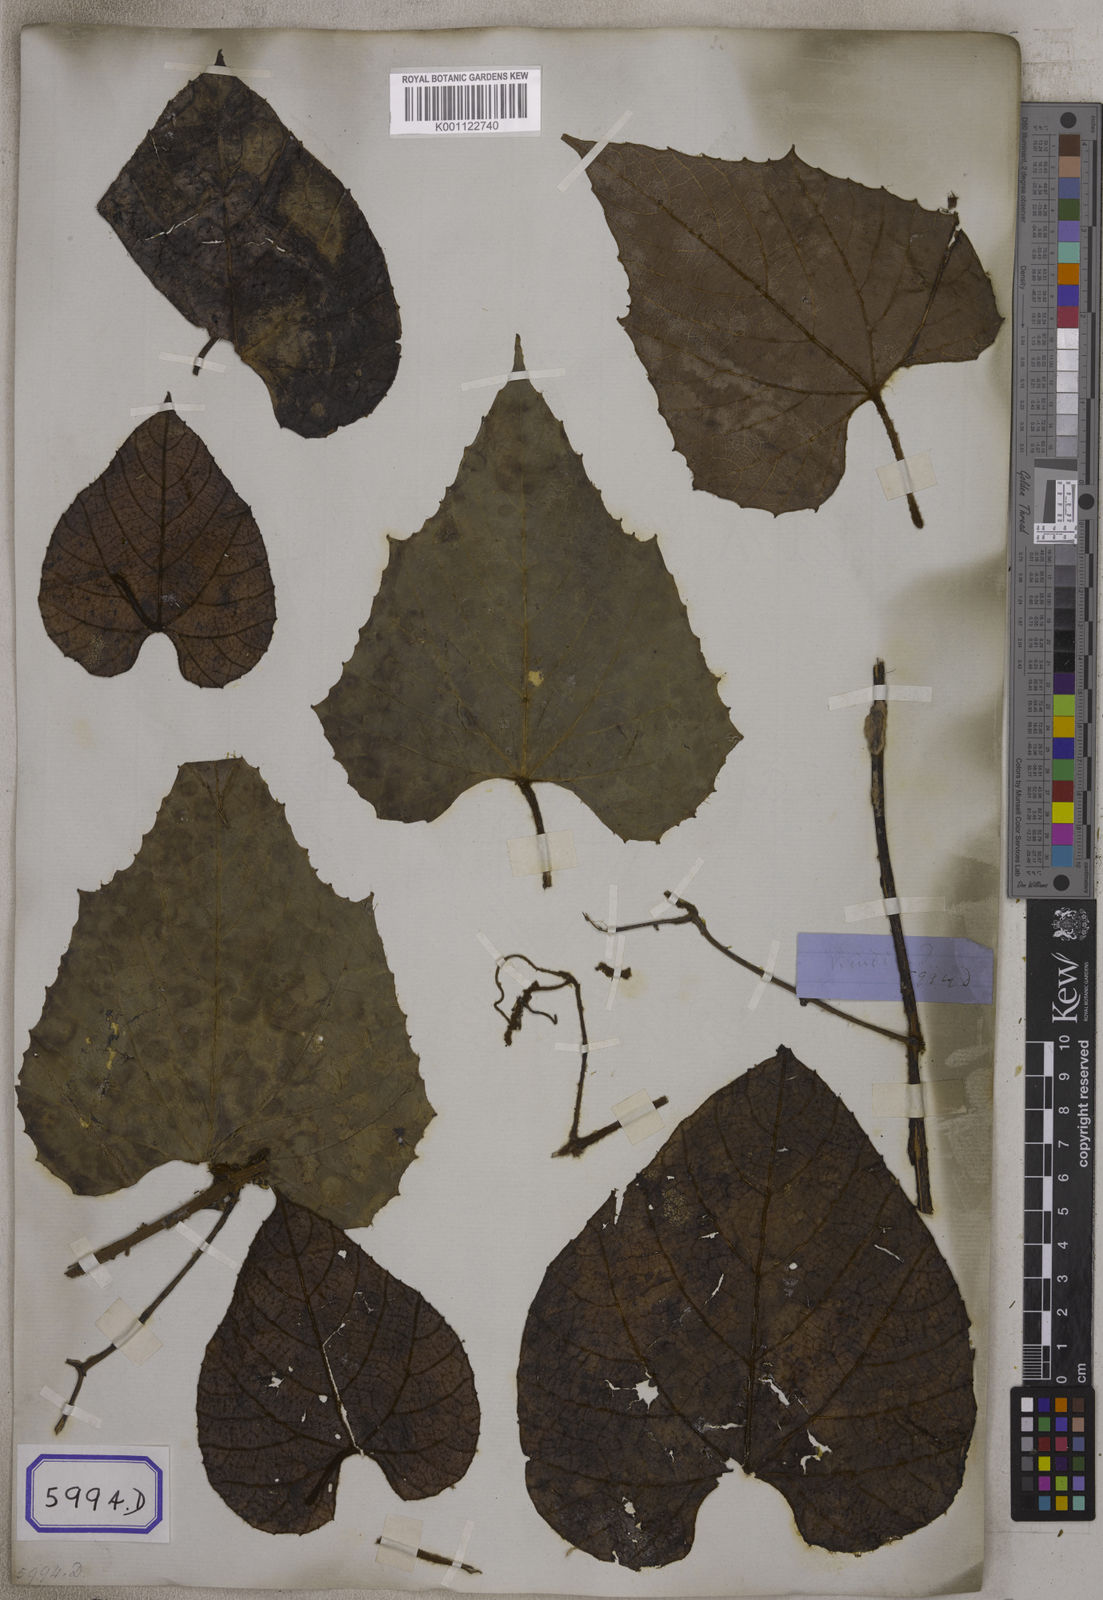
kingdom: Plantae
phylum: Tracheophyta
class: Magnoliopsida
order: Vitales
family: Vitaceae
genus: Ampelocissus
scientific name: Ampelocissus rugosa
